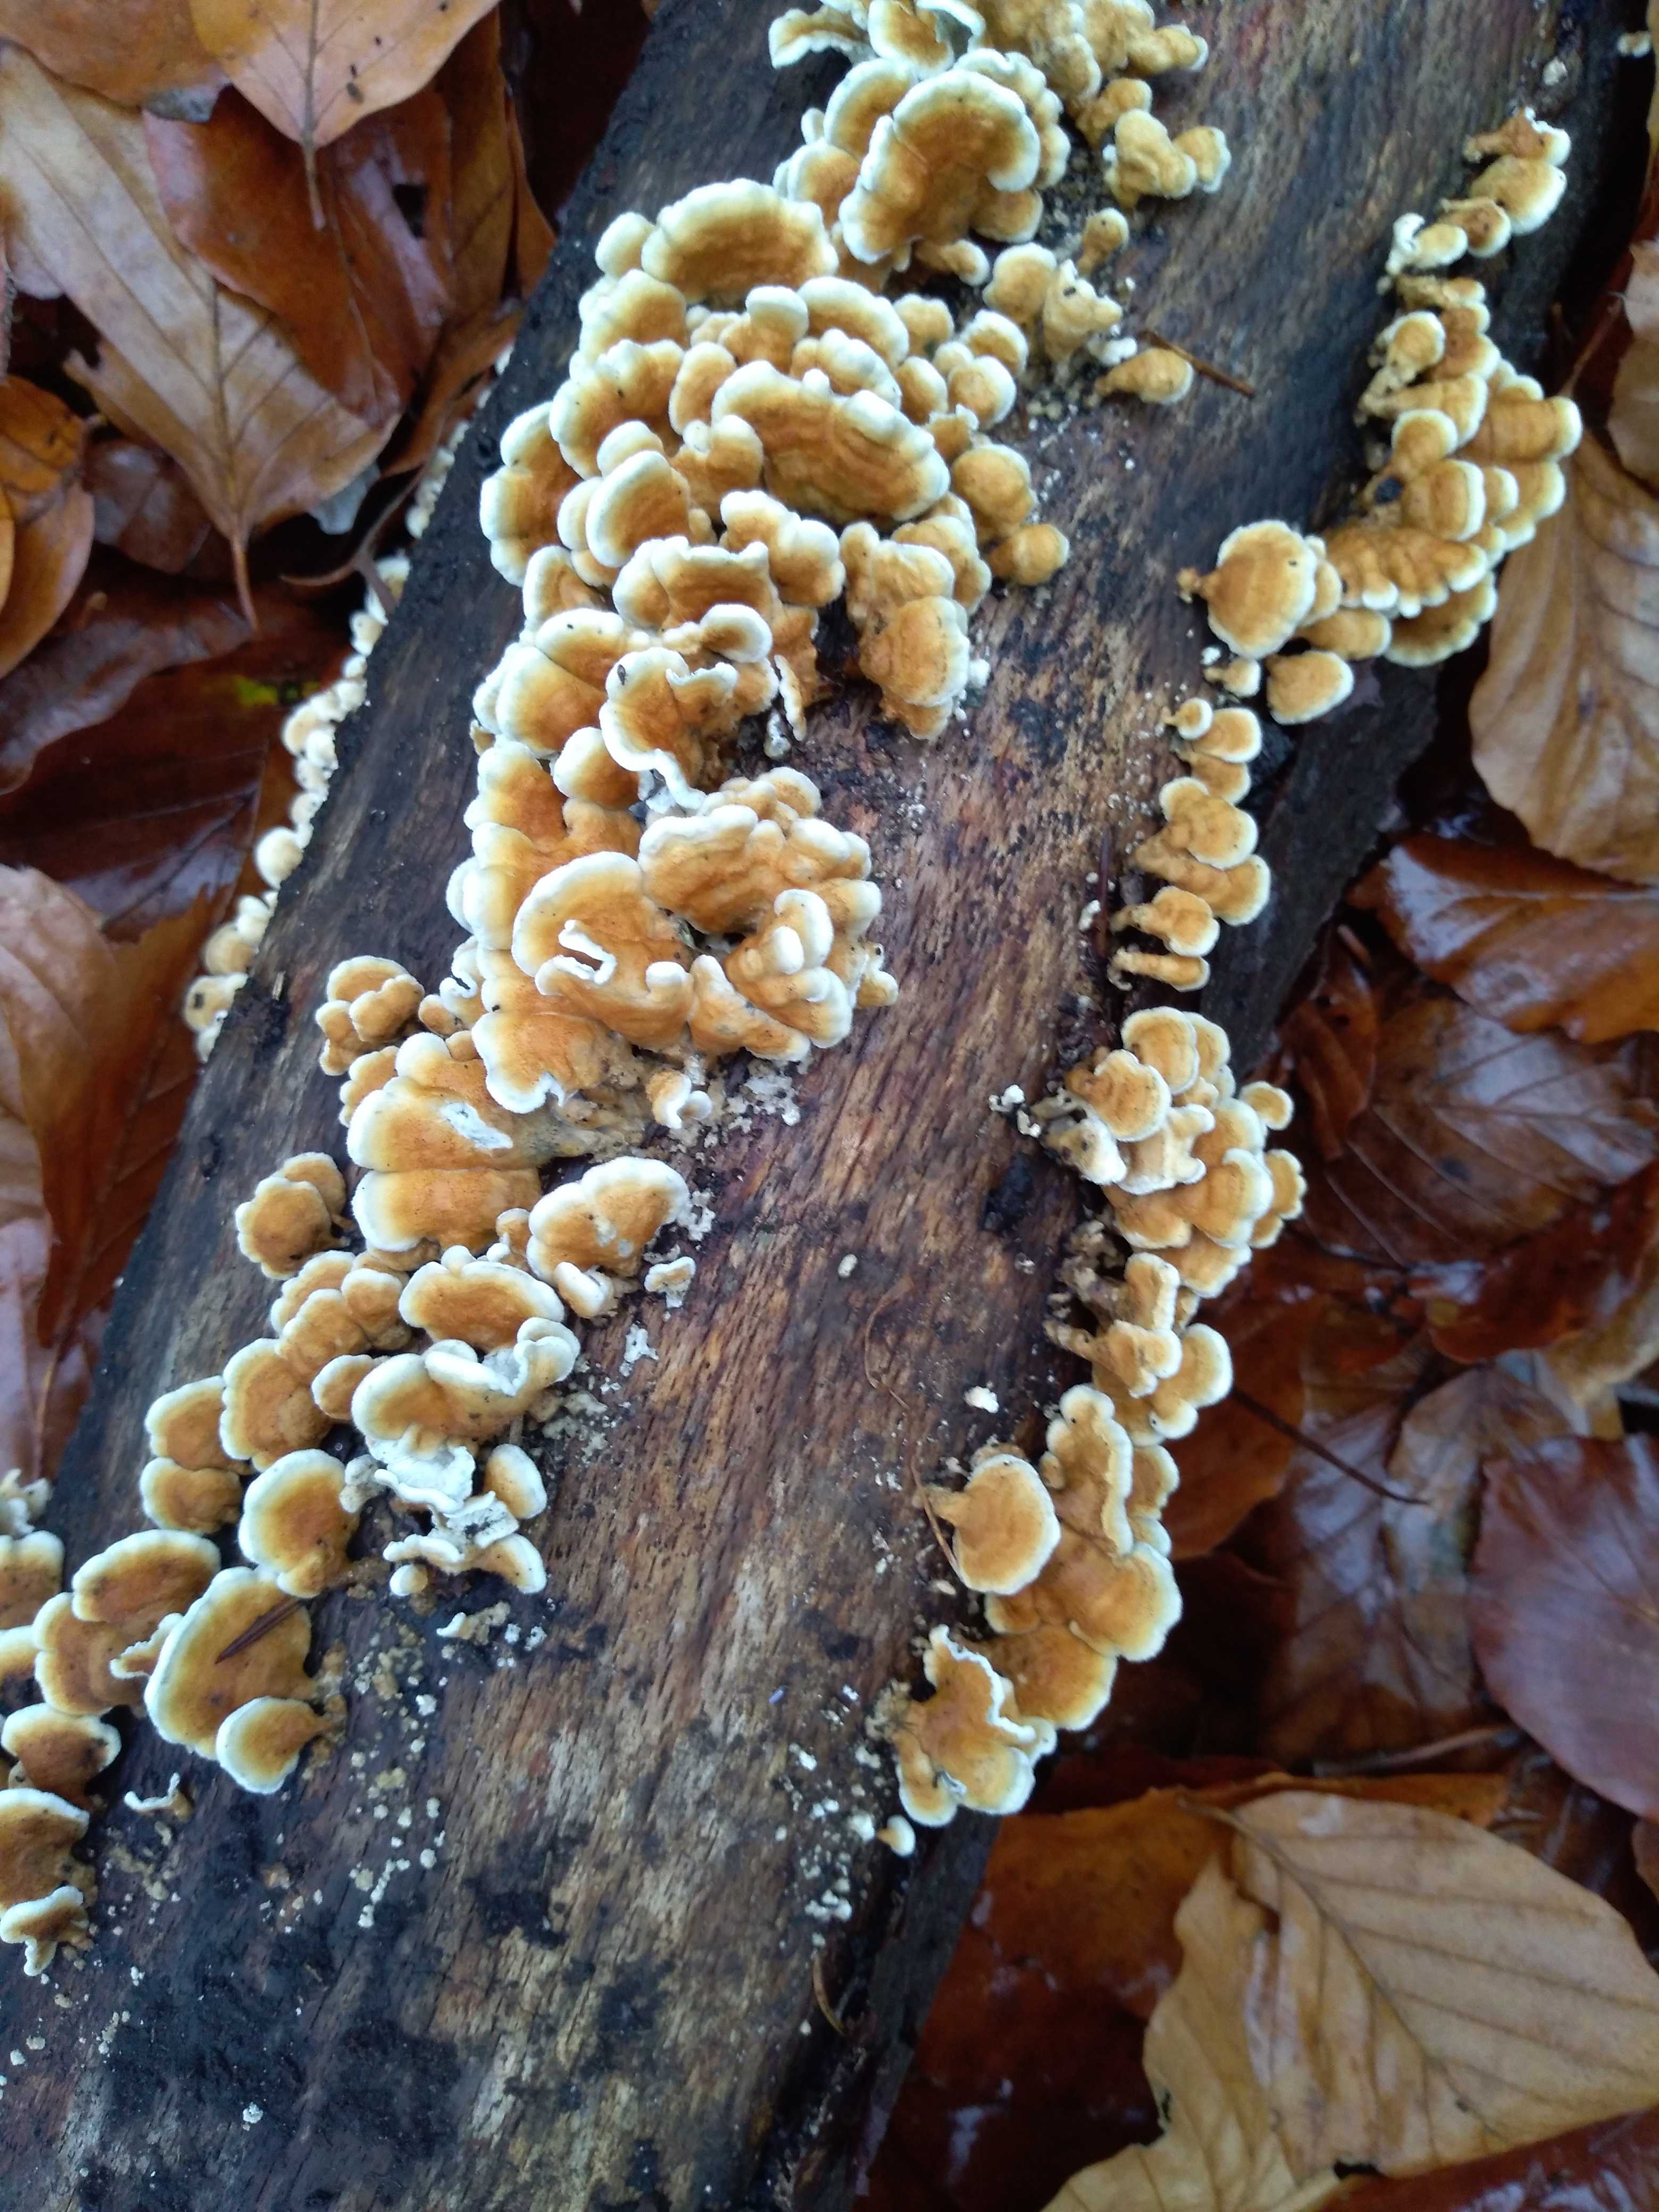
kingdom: Fungi
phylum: Basidiomycota
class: Agaricomycetes
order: Amylocorticiales
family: Amylocorticiaceae
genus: Plicaturopsis
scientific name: Plicaturopsis crispa
